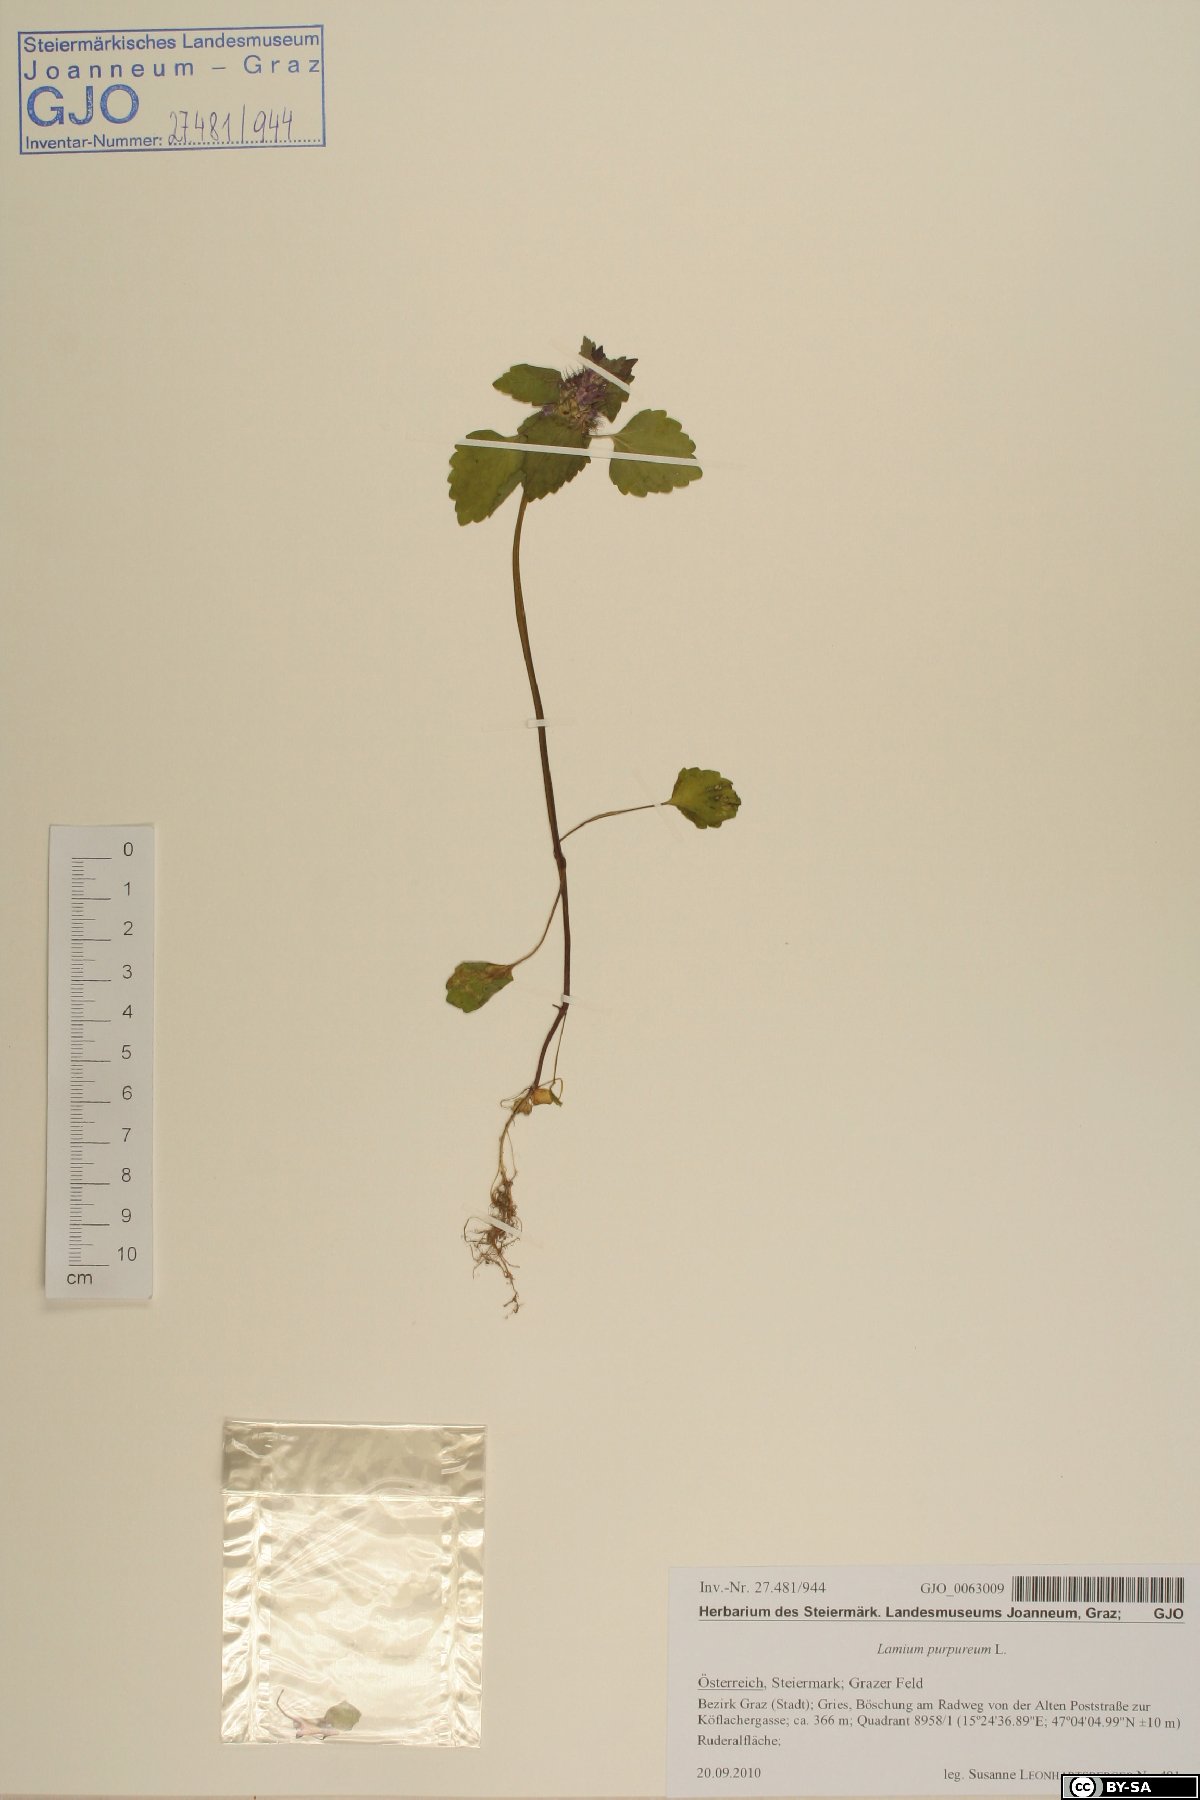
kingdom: Plantae
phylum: Tracheophyta
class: Magnoliopsida
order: Lamiales
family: Lamiaceae
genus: Lamium
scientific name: Lamium purpureum
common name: Red dead-nettle
